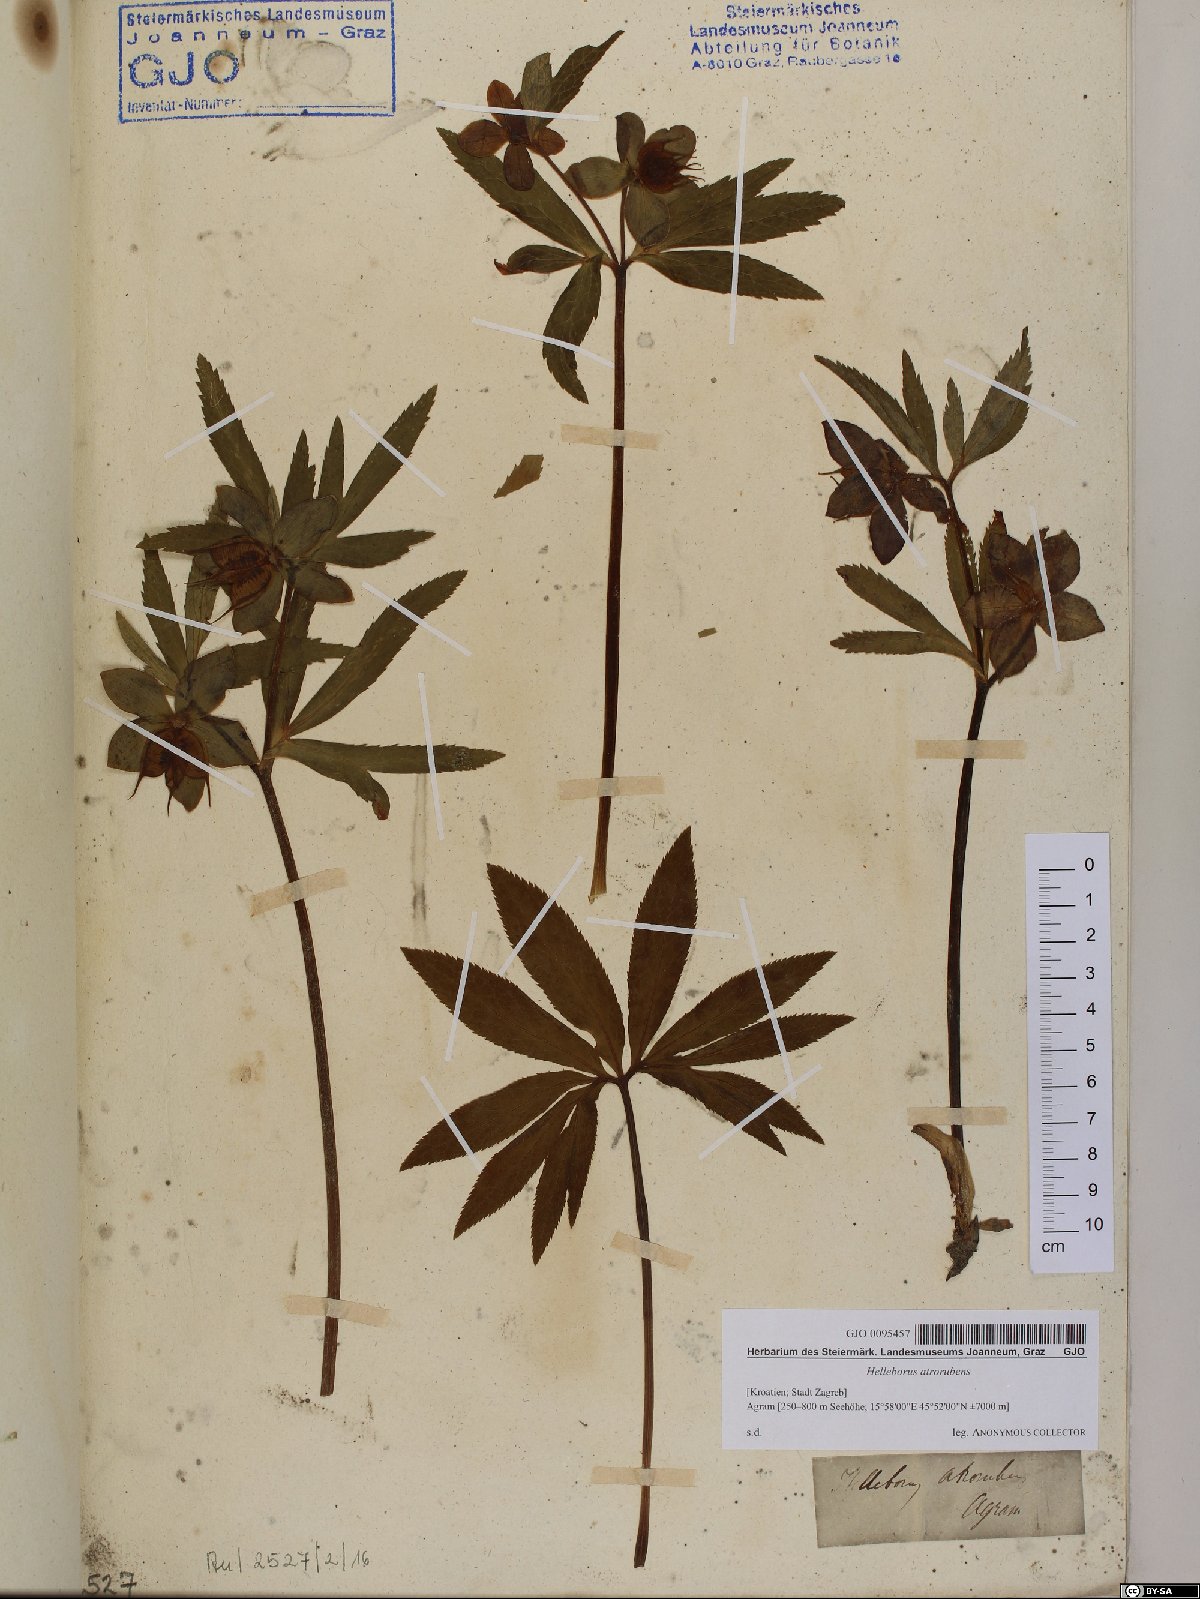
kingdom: Plantae
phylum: Tracheophyta
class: Magnoliopsida
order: Ranunculales
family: Ranunculaceae
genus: Helleborus
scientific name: Helleborus dumetorum
